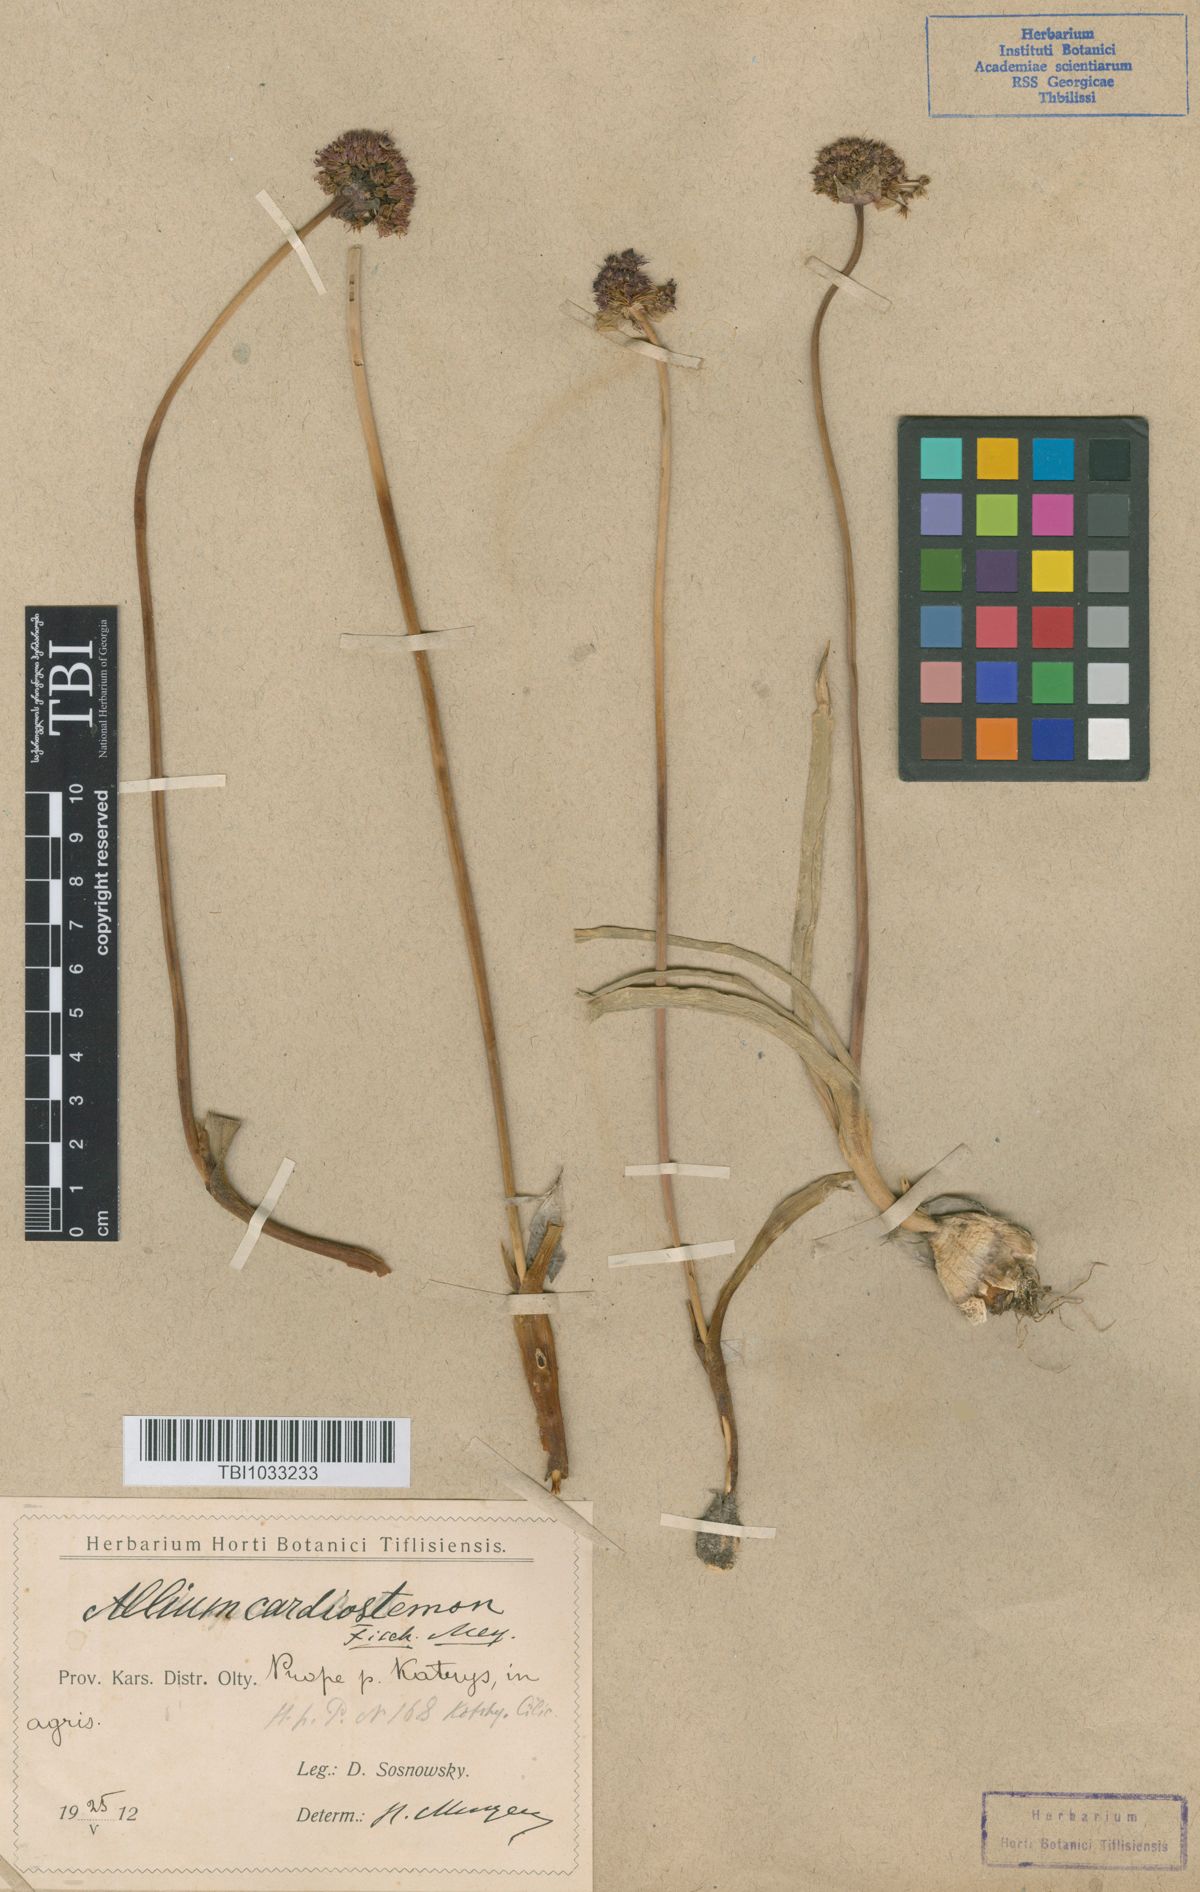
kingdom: Plantae
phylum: Tracheophyta
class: Liliopsida
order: Asparagales
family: Amaryllidaceae
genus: Allium
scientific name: Allium cardiostemon
